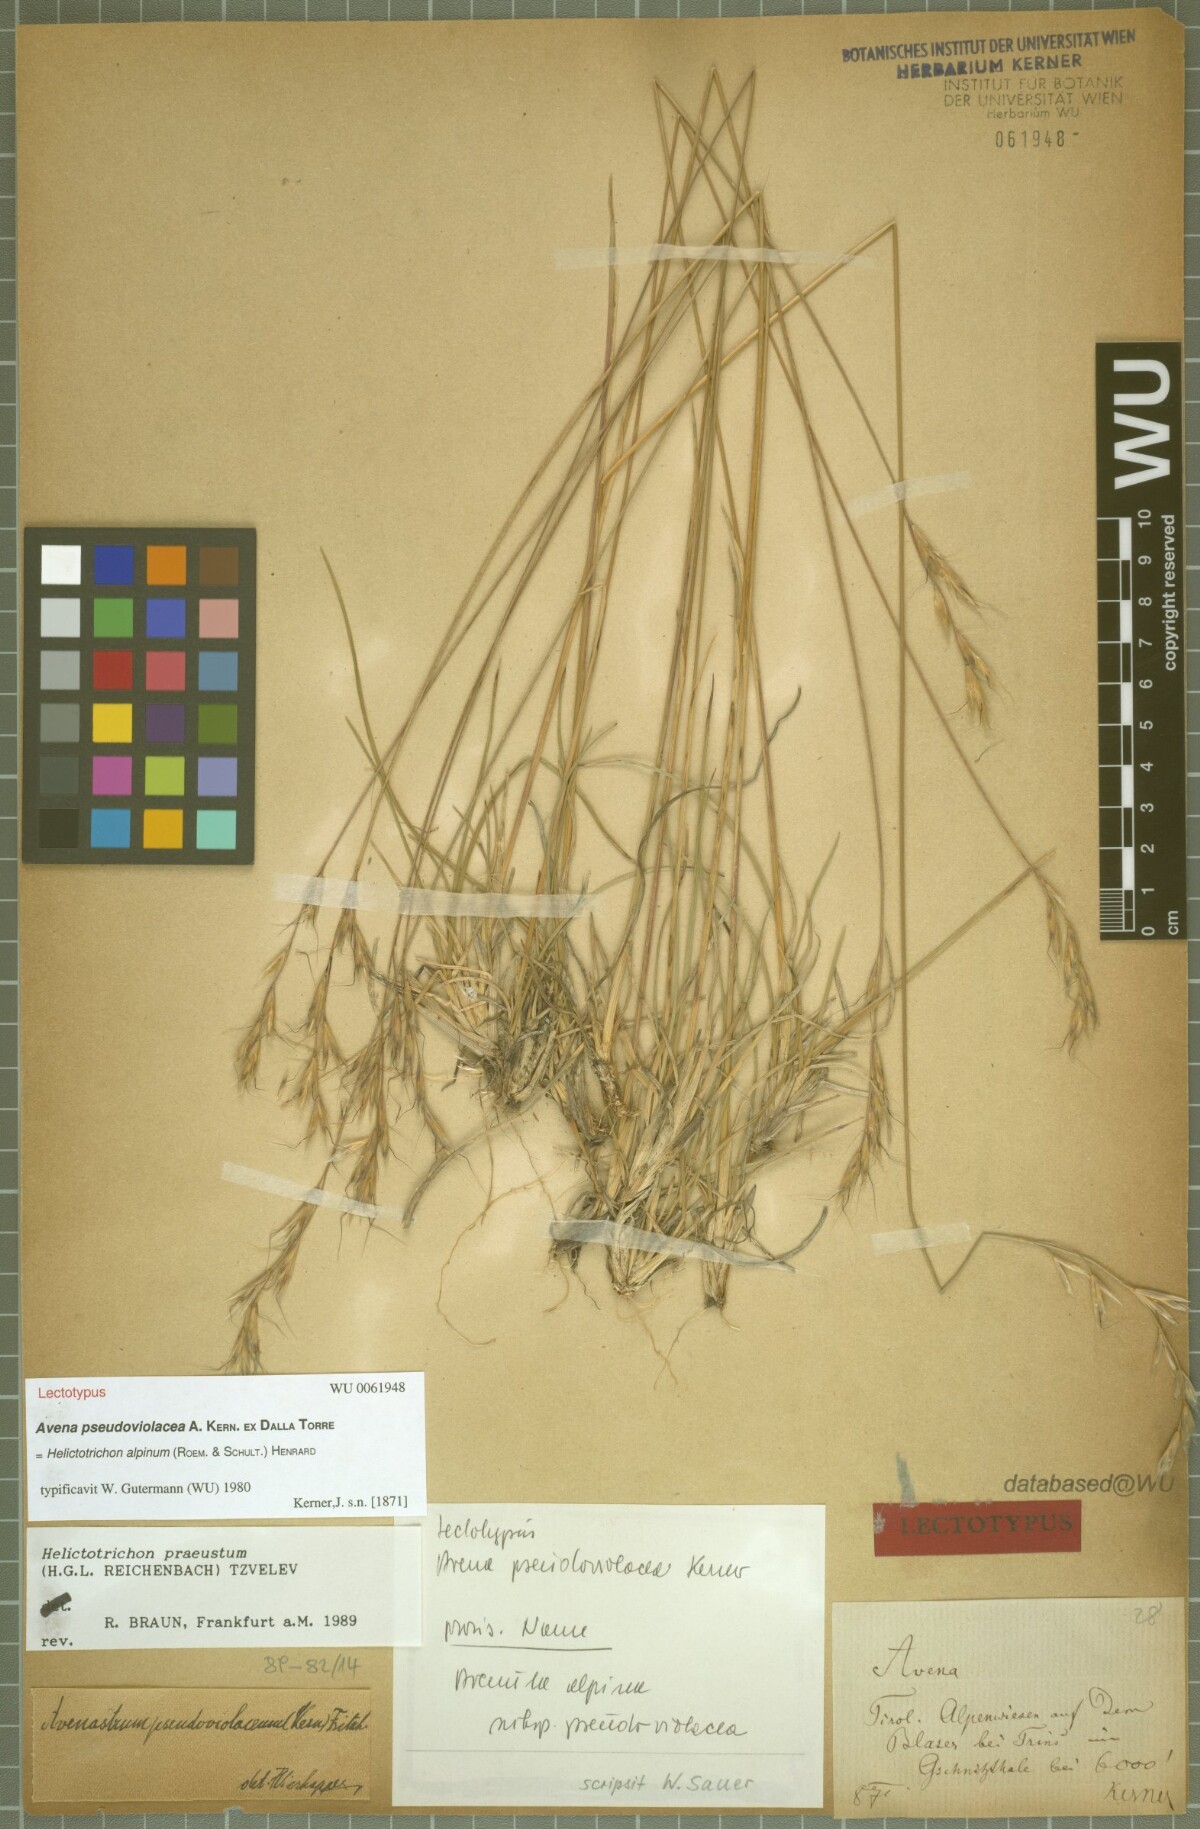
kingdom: Plantae
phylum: Tracheophyta
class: Liliopsida
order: Poales
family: Poaceae
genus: Helictochloa
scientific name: Helictochloa praeusta
